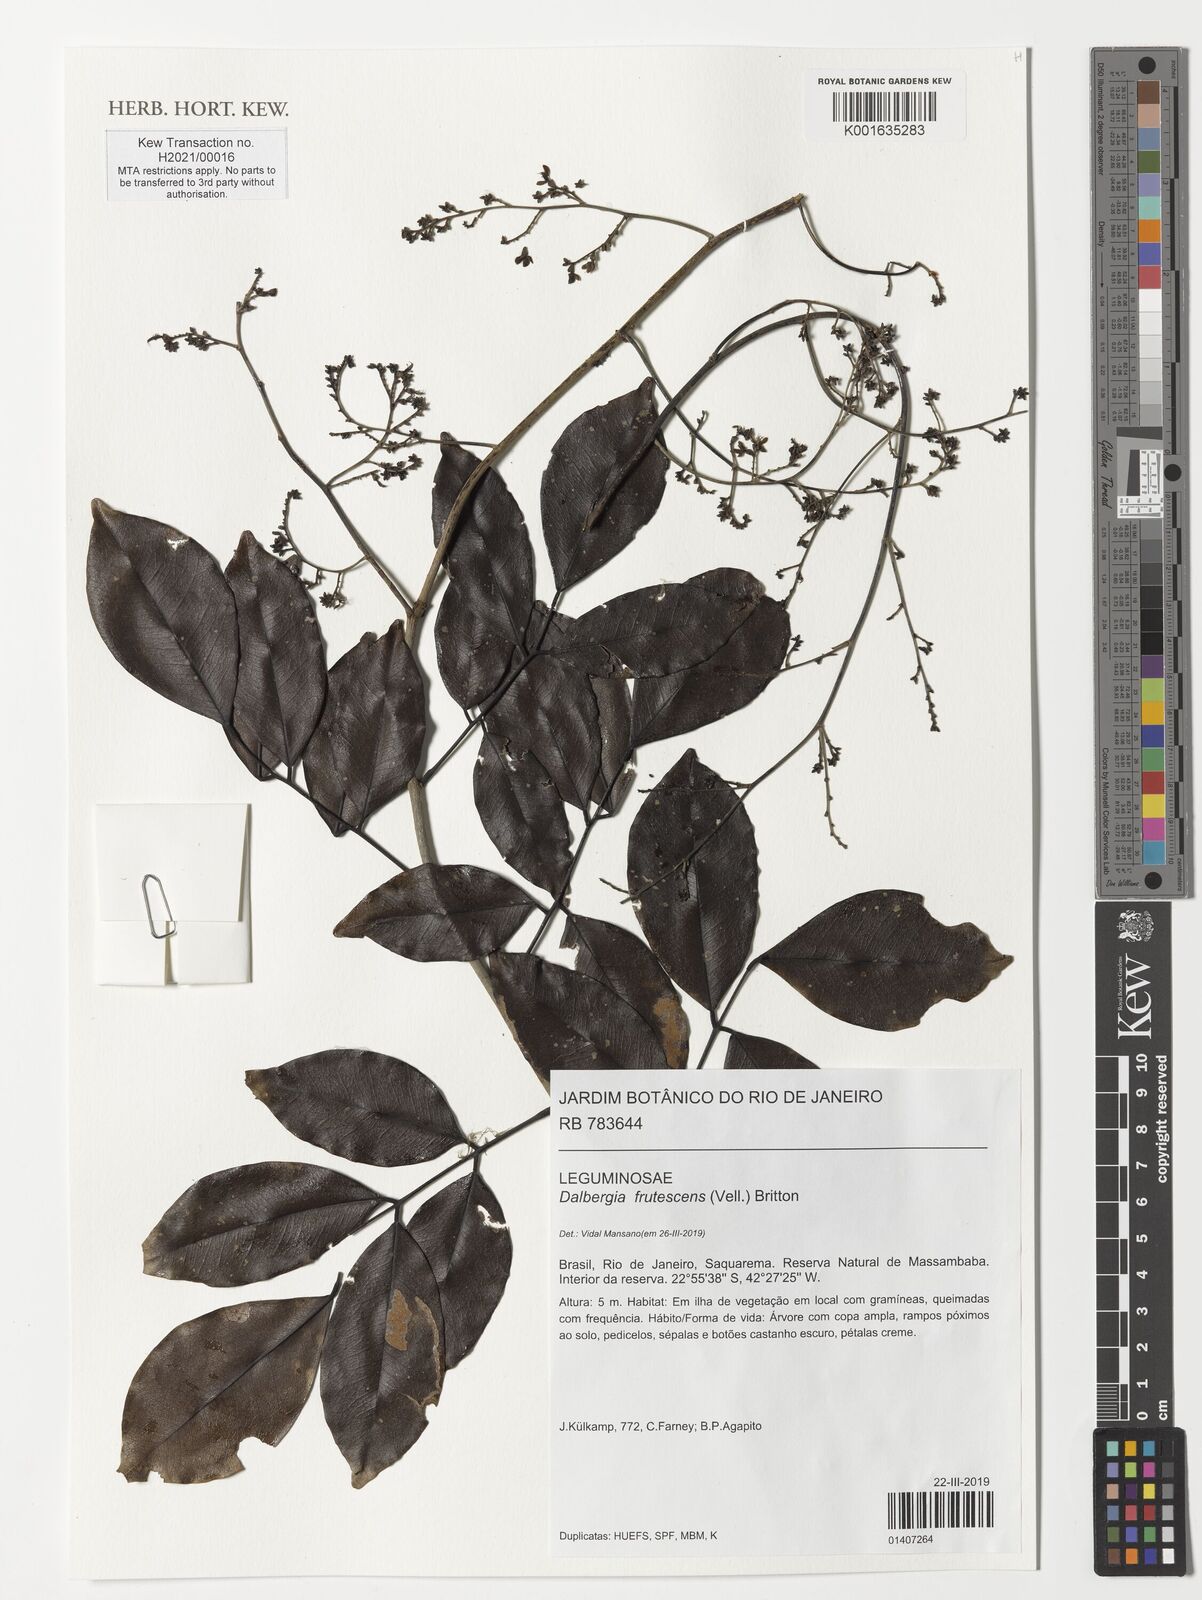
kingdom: Plantae
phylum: Tracheophyta
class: Magnoliopsida
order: Fabales
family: Fabaceae
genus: Dalbergia
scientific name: Dalbergia frutescens
